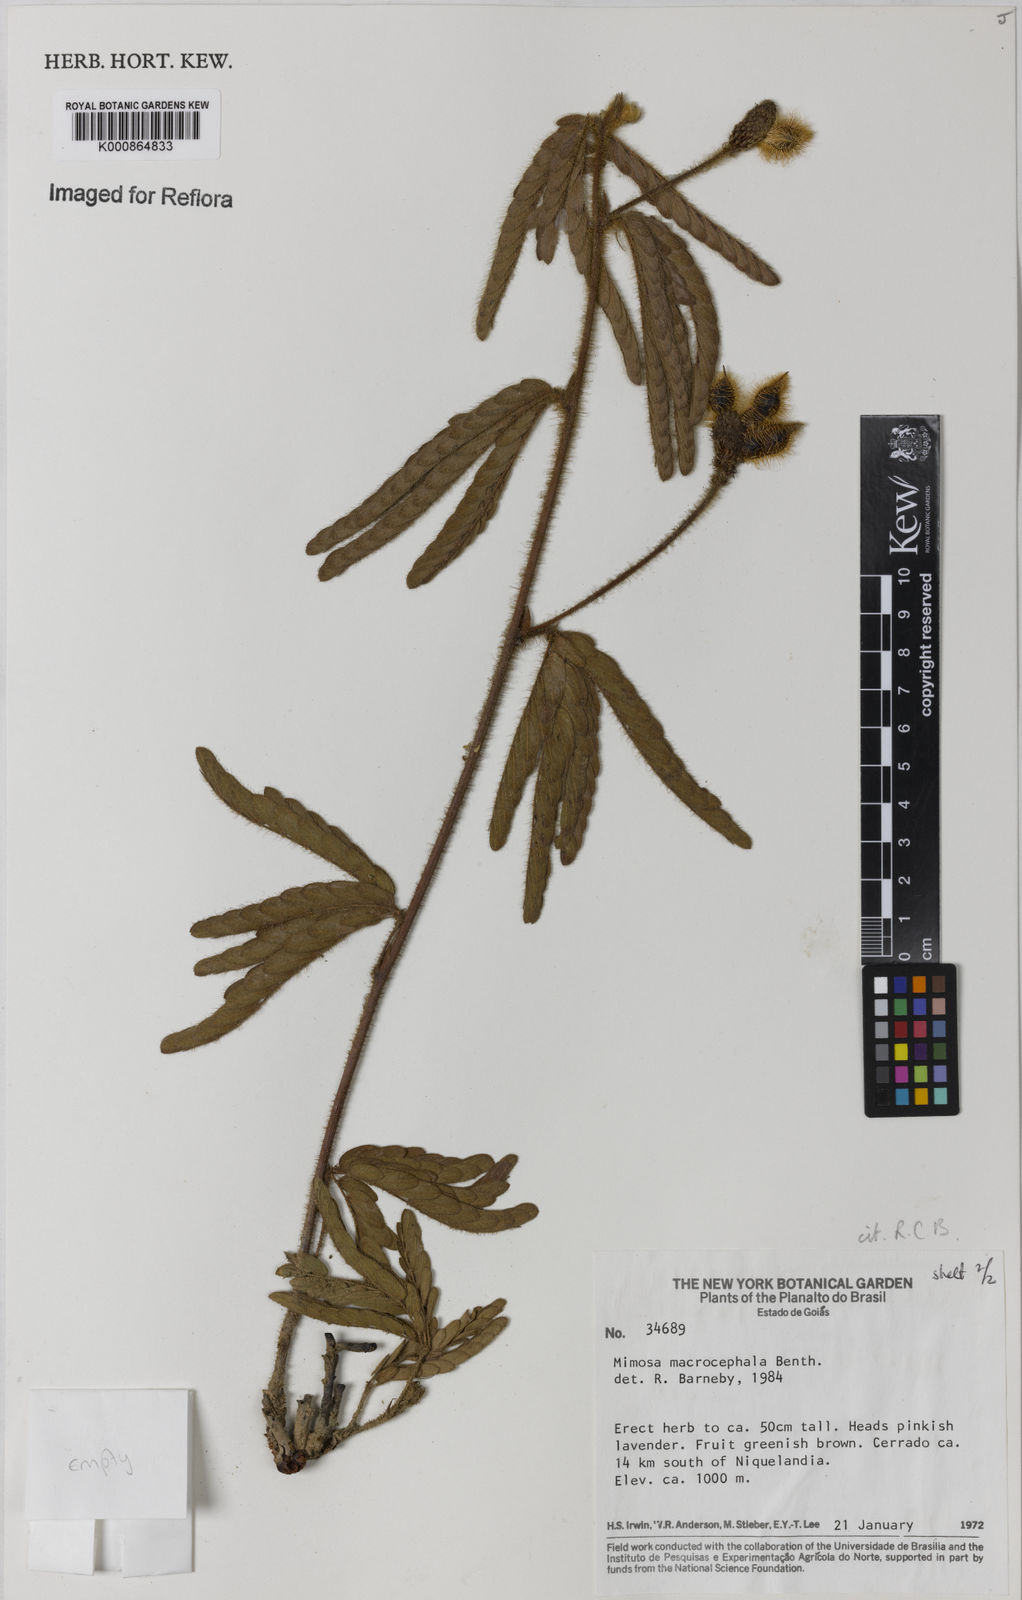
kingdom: Plantae
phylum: Tracheophyta
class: Magnoliopsida
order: Fabales
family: Fabaceae
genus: Mimosa
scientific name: Mimosa macrocephala
